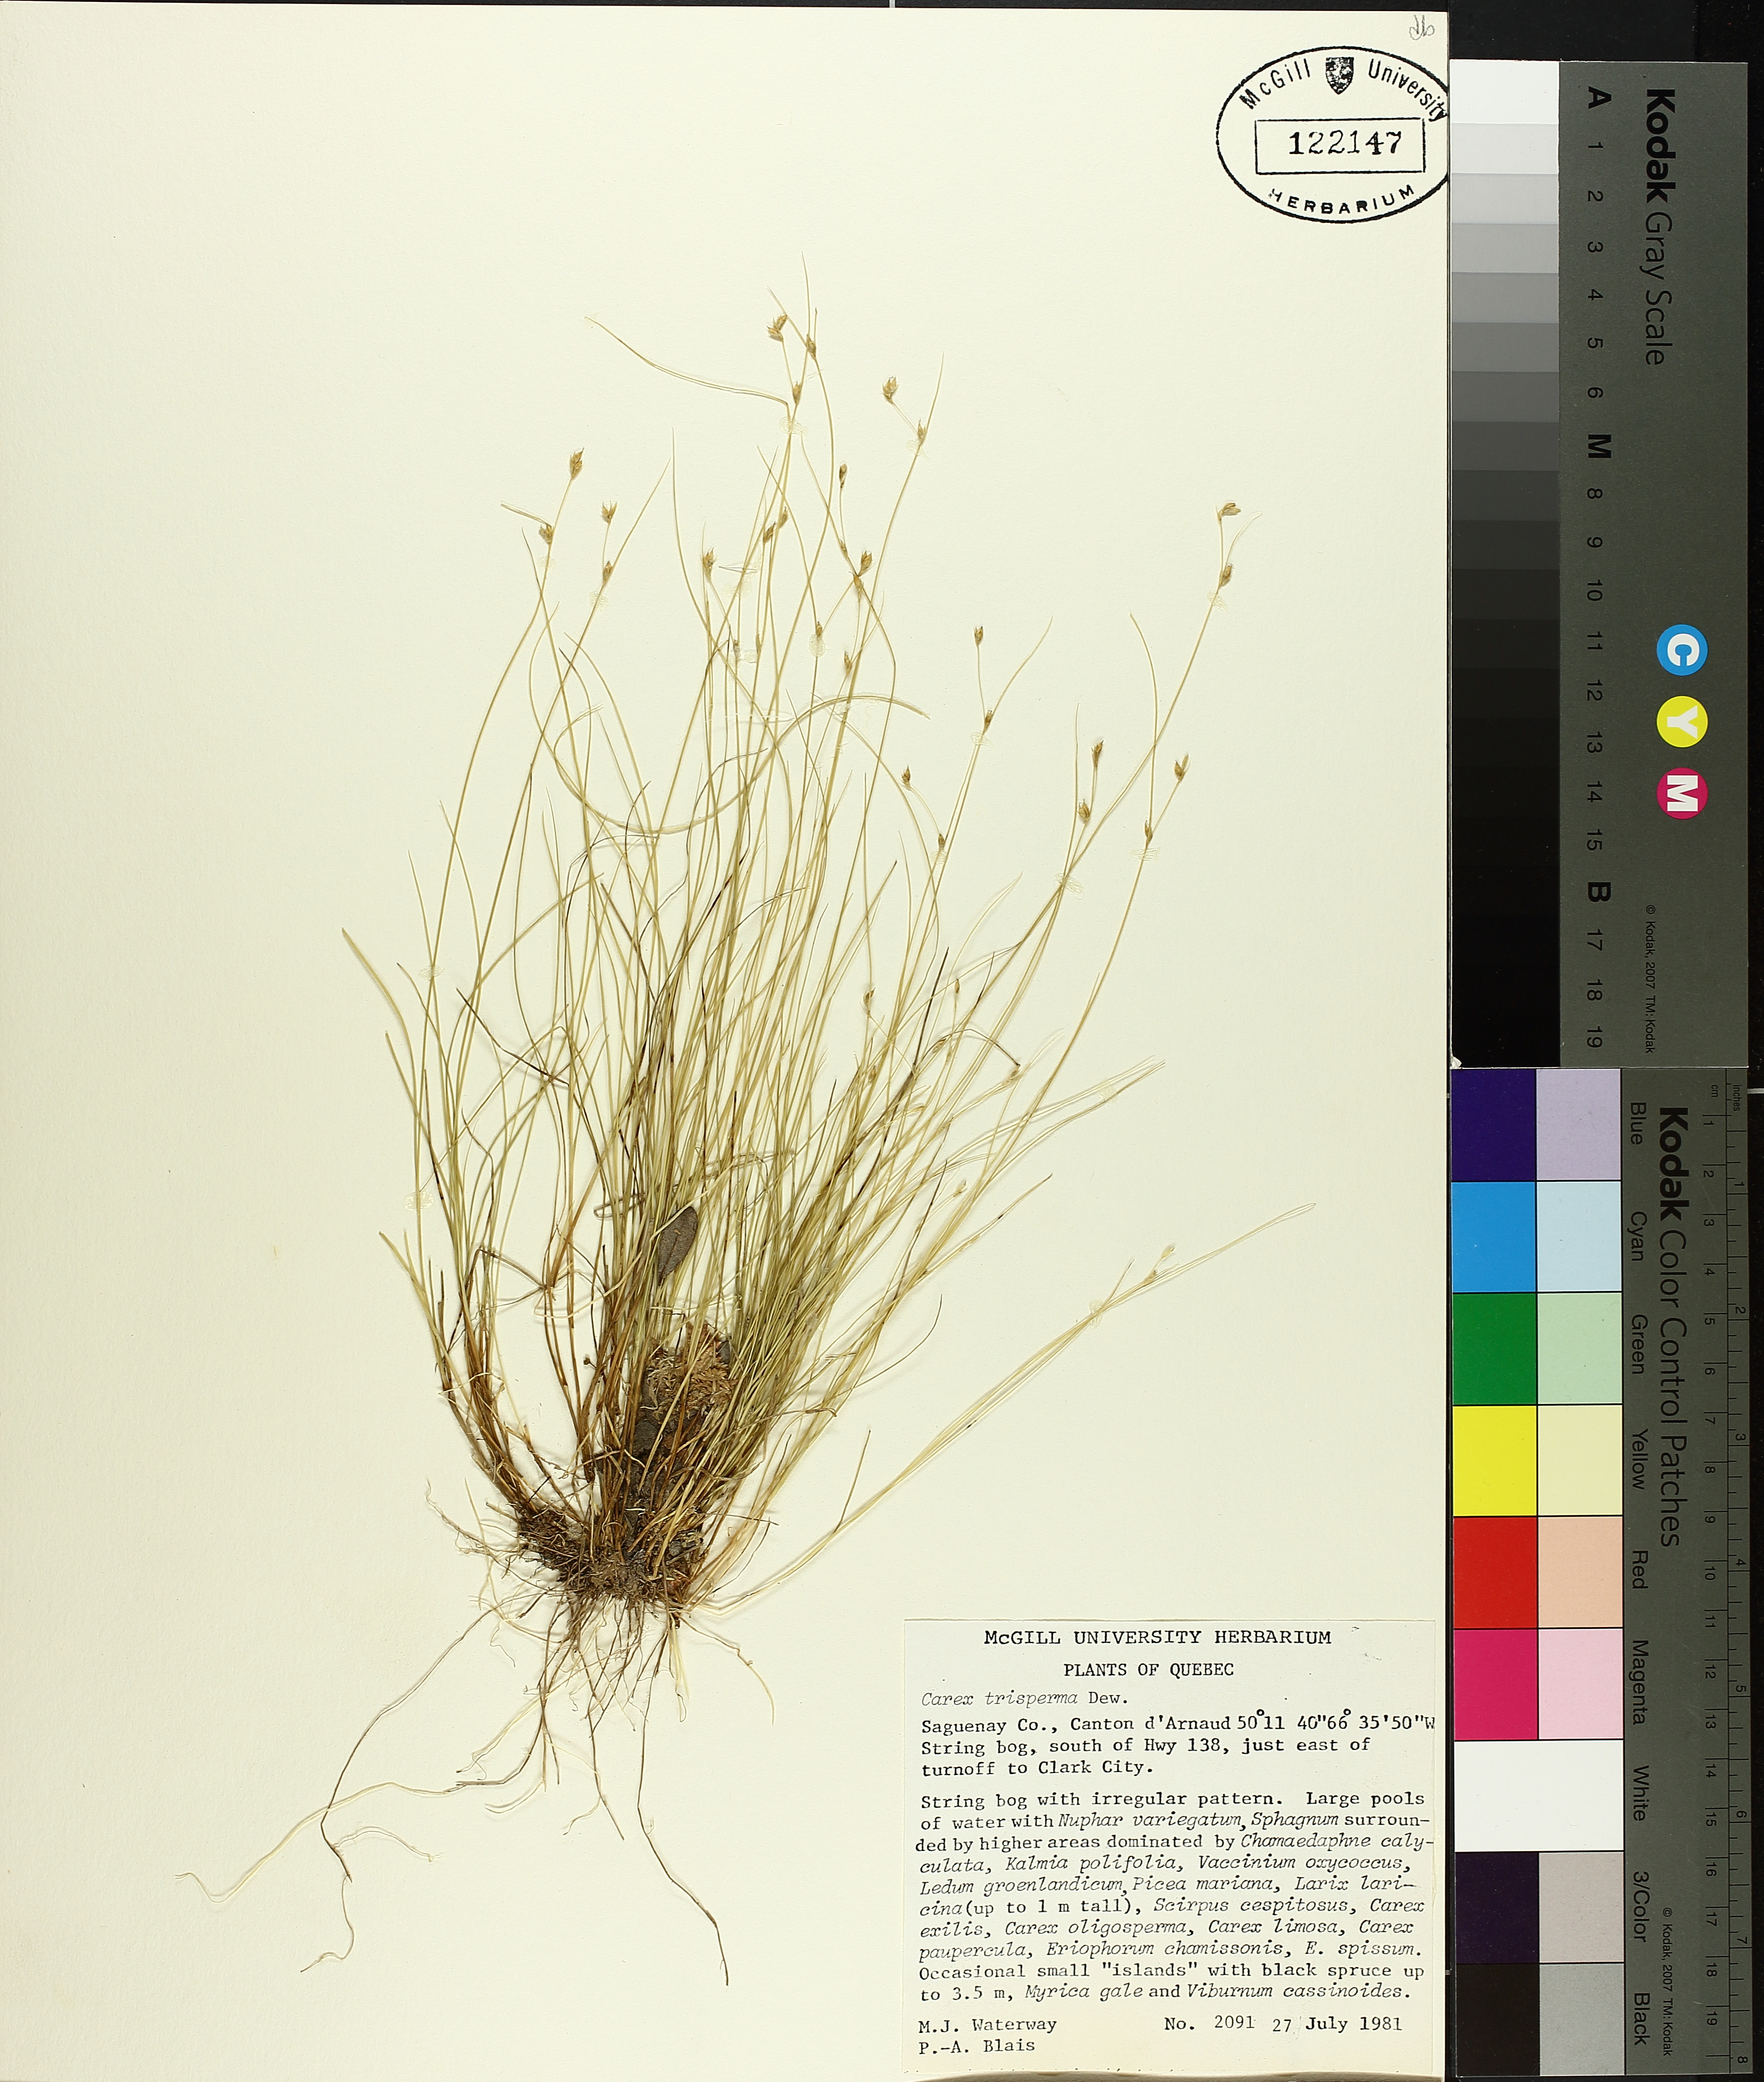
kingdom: Plantae
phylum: Tracheophyta
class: Liliopsida
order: Poales
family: Cyperaceae
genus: Carex
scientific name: Carex trisperma
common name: Three-seeded sedge
